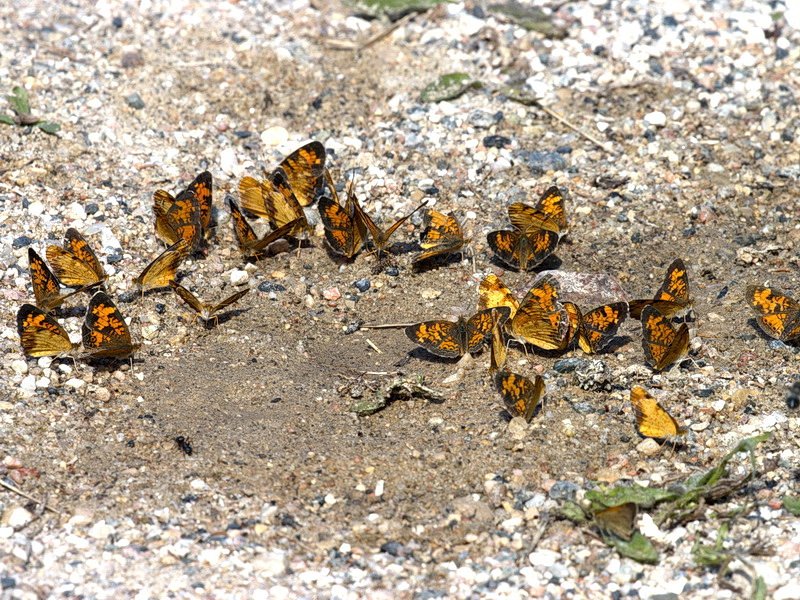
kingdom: Animalia
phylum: Arthropoda
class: Insecta
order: Lepidoptera
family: Nymphalidae
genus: Phyciodes
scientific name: Phyciodes tharos
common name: Northern Crescent
